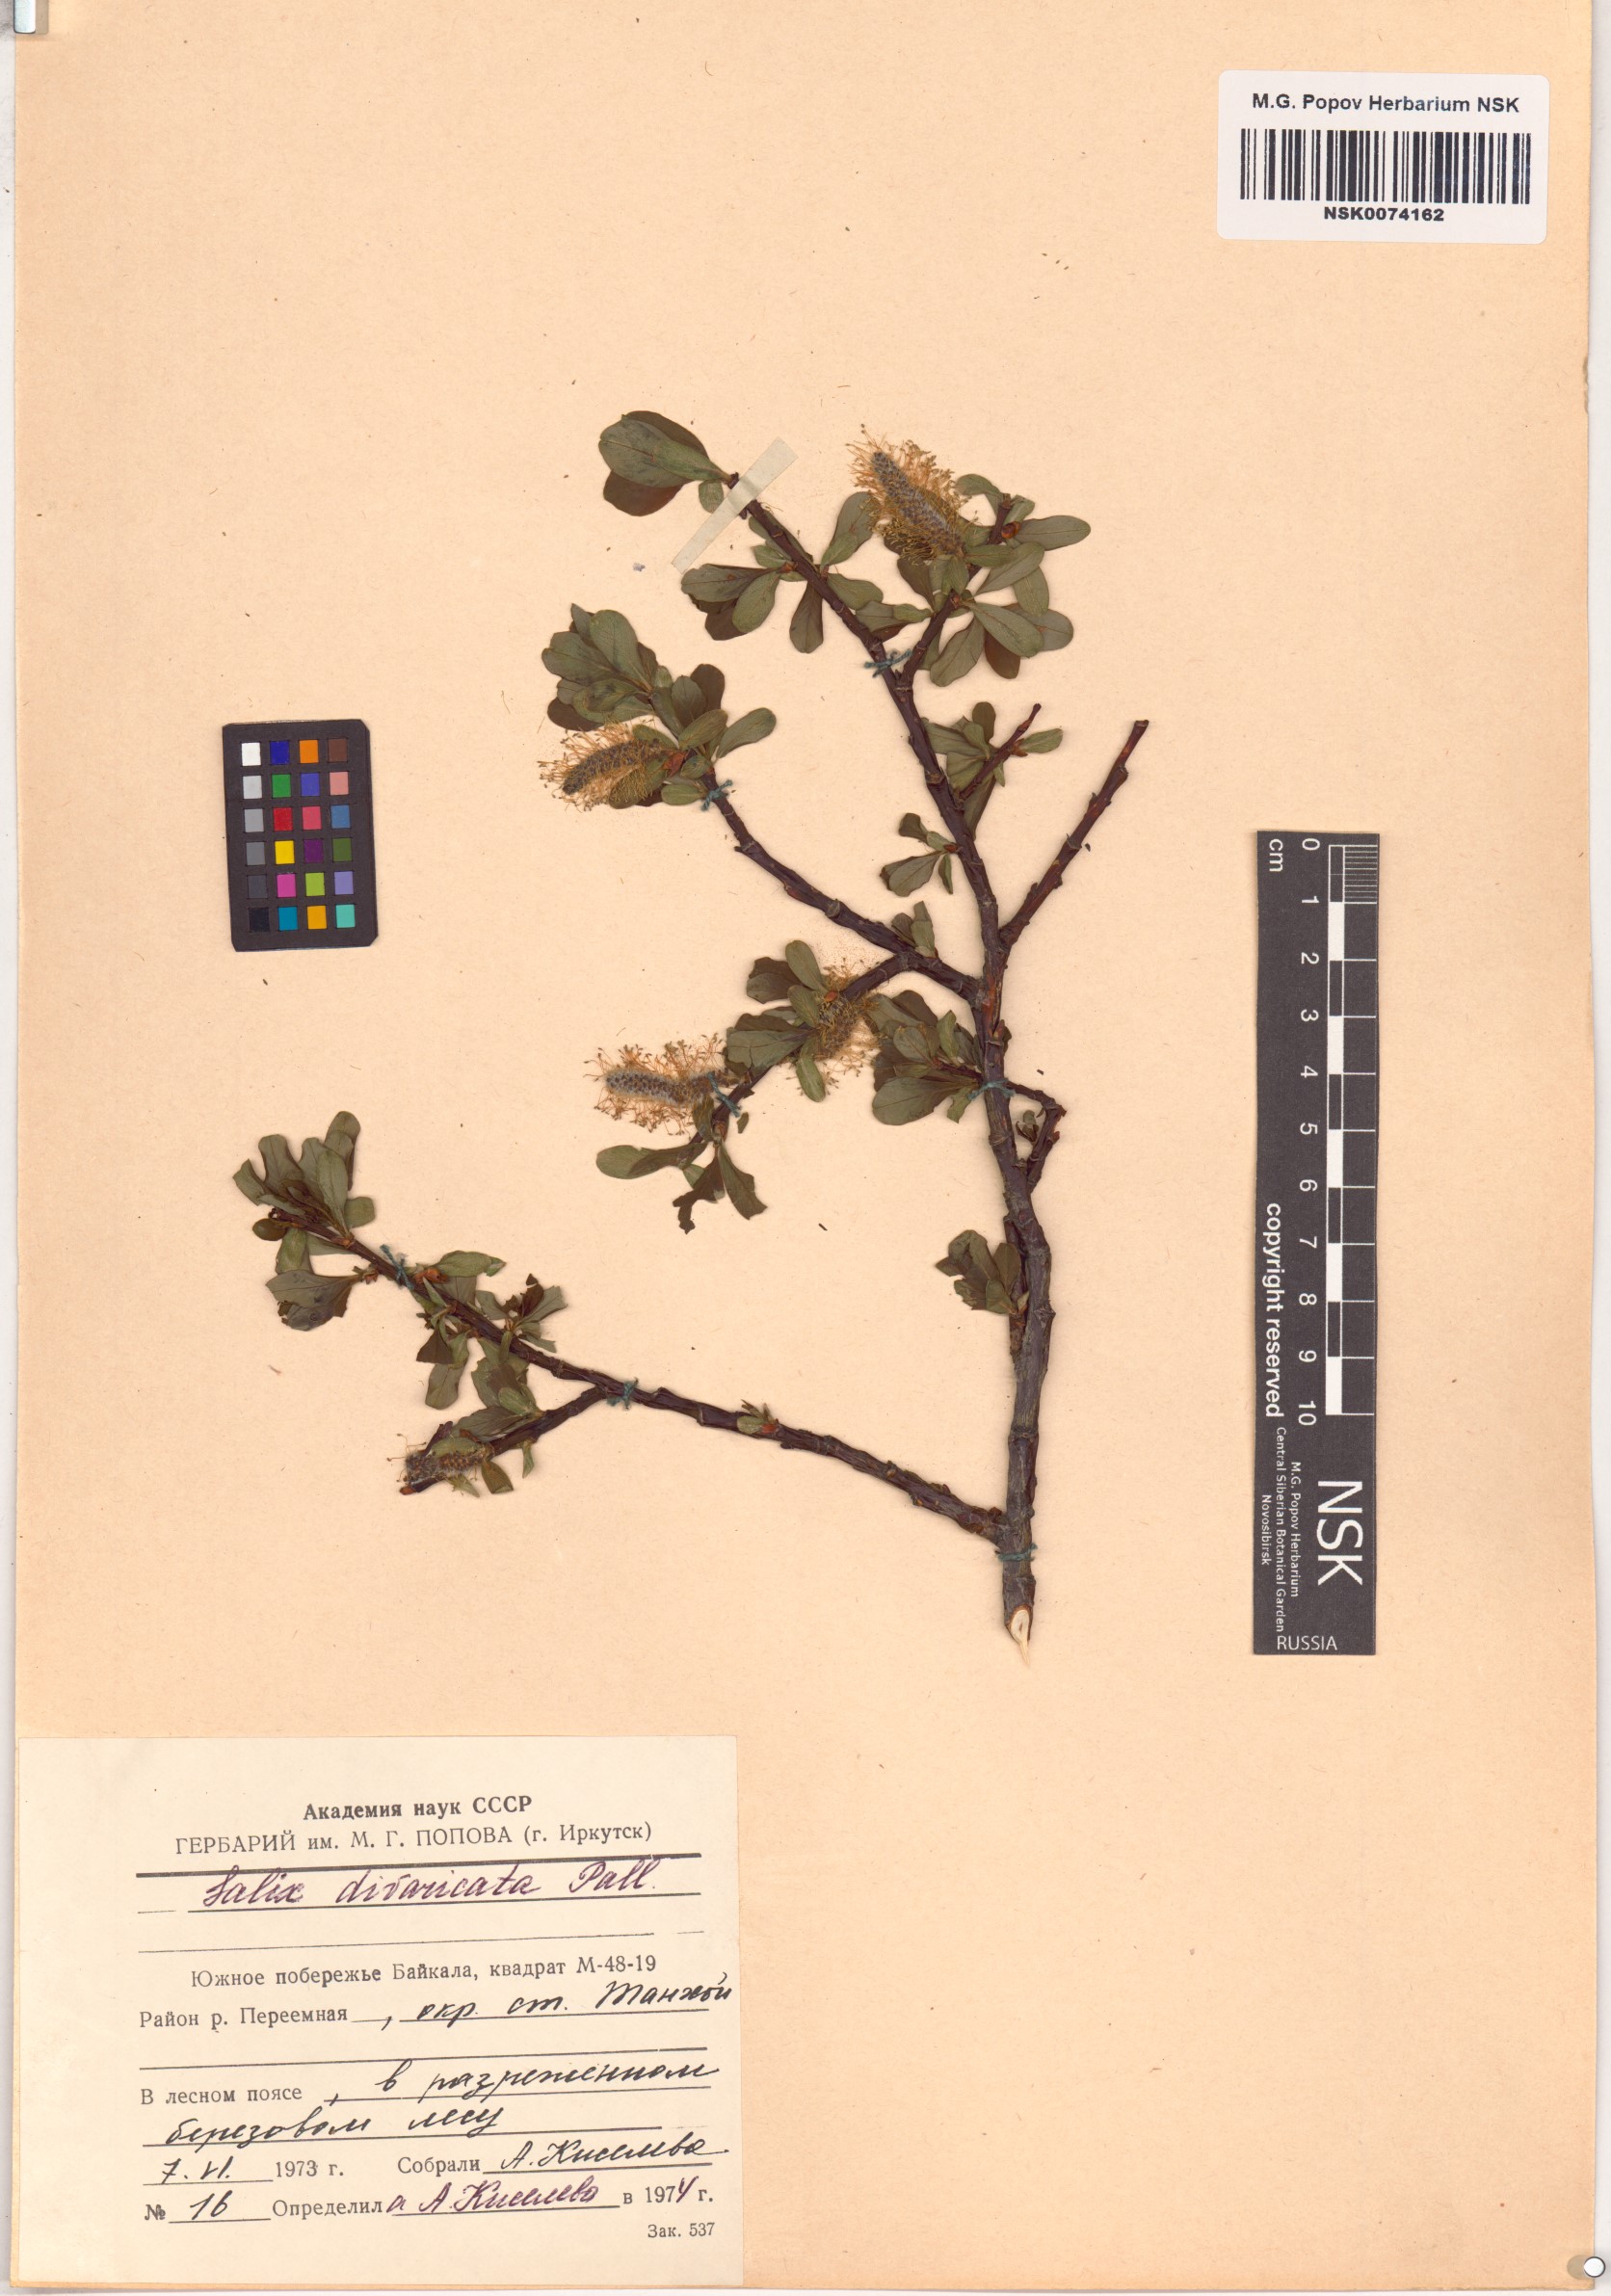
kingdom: Plantae
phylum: Tracheophyta
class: Magnoliopsida
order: Malpighiales
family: Salicaceae
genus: Salix
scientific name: Salix divaricata
